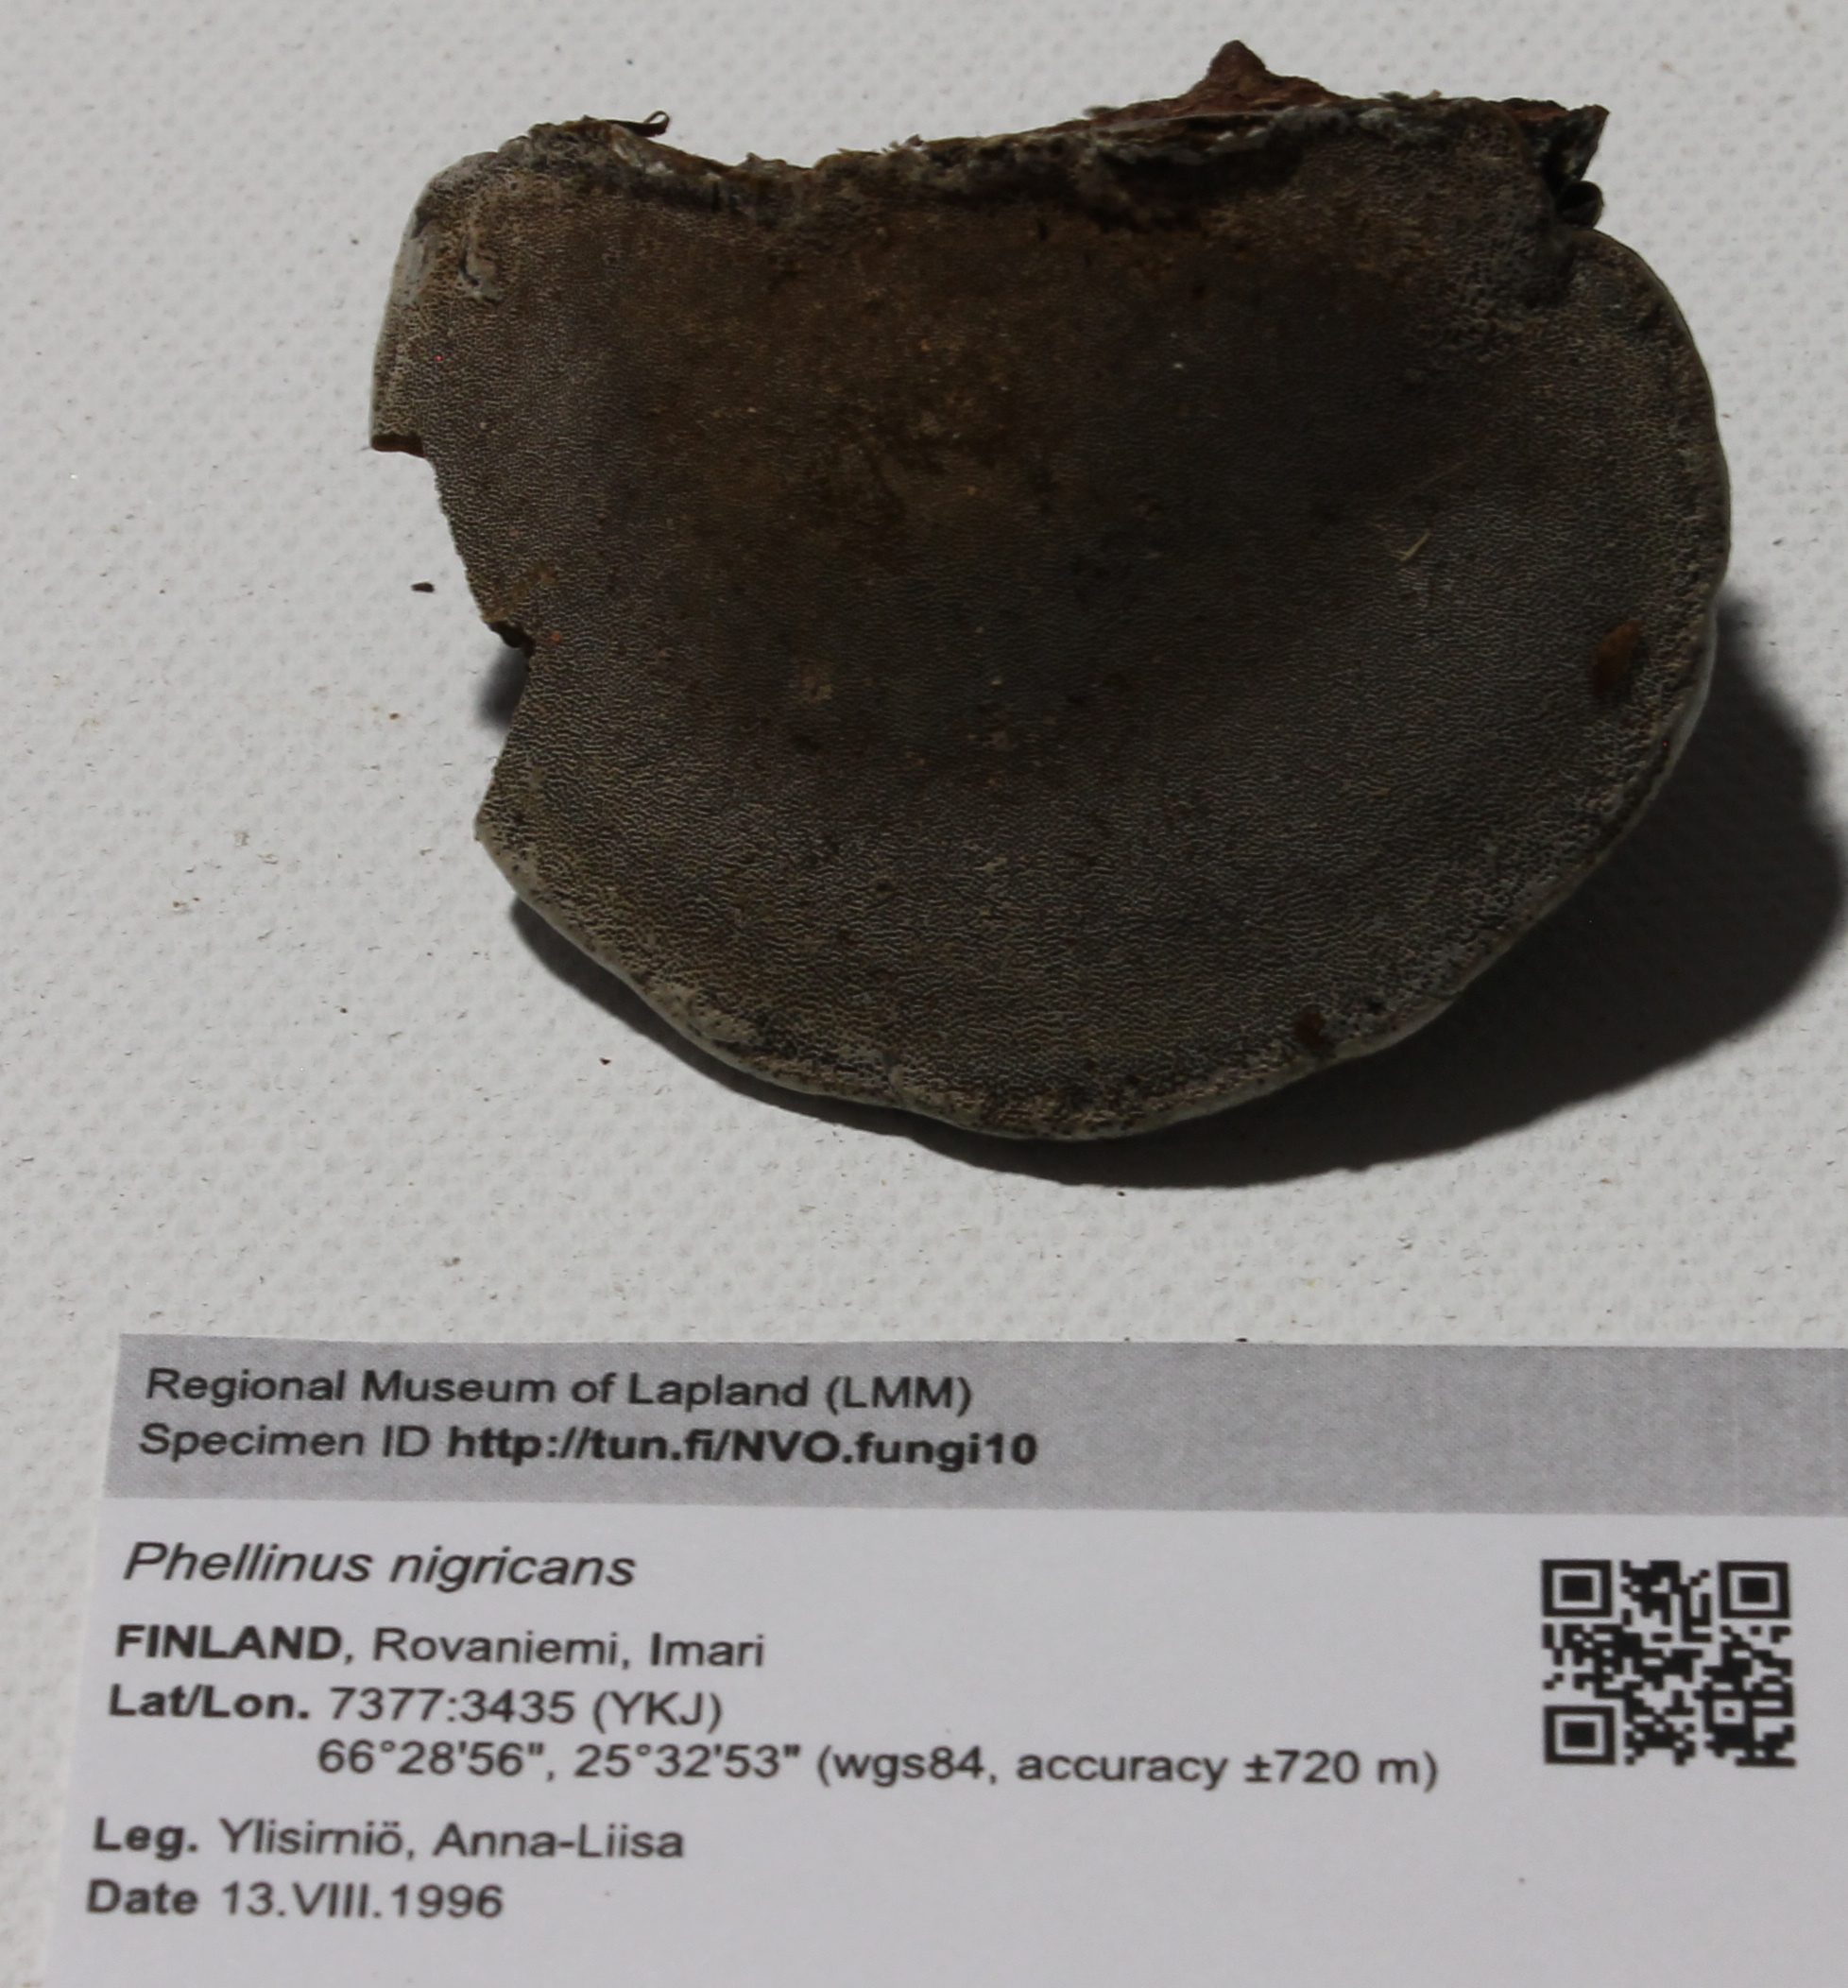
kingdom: Fungi
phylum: Basidiomycota
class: Agaricomycetes
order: Hymenochaetales
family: Hymenochaetaceae
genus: Phellinus
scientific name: Phellinus
